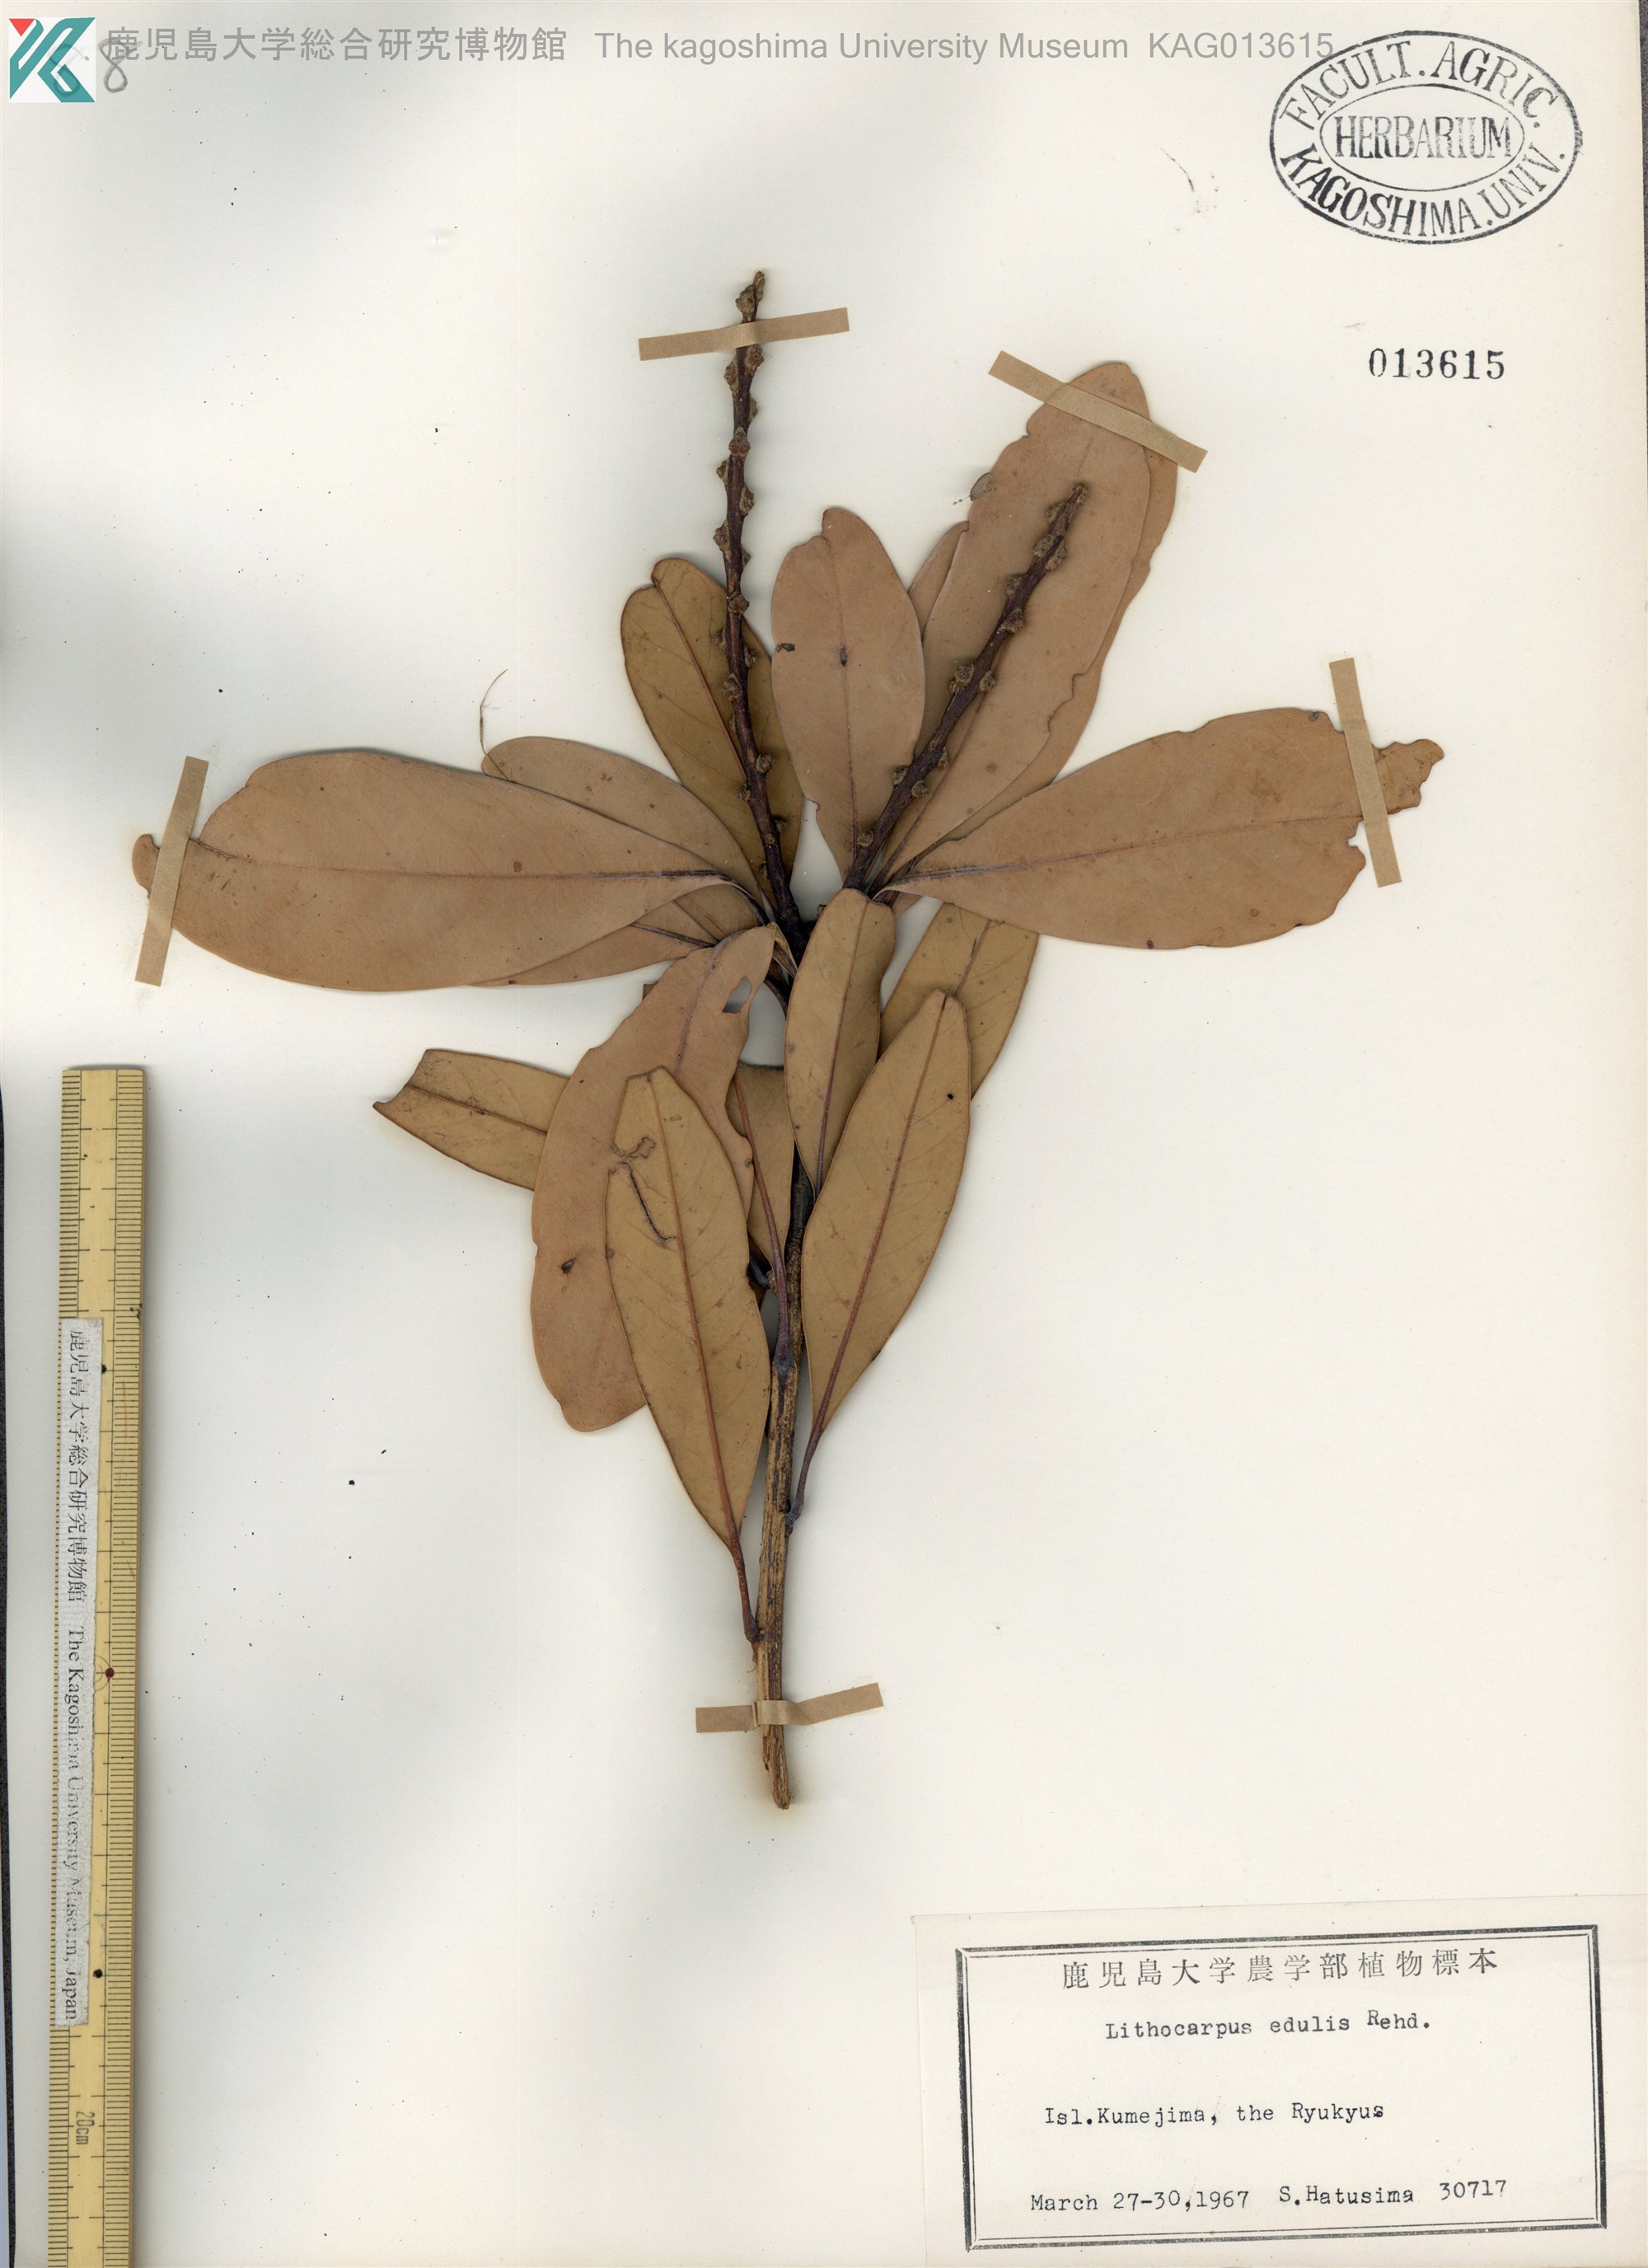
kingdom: Plantae
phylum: Tracheophyta
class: Magnoliopsida
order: Fagales
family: Fagaceae
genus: Lithocarpus
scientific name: Lithocarpus edulis
